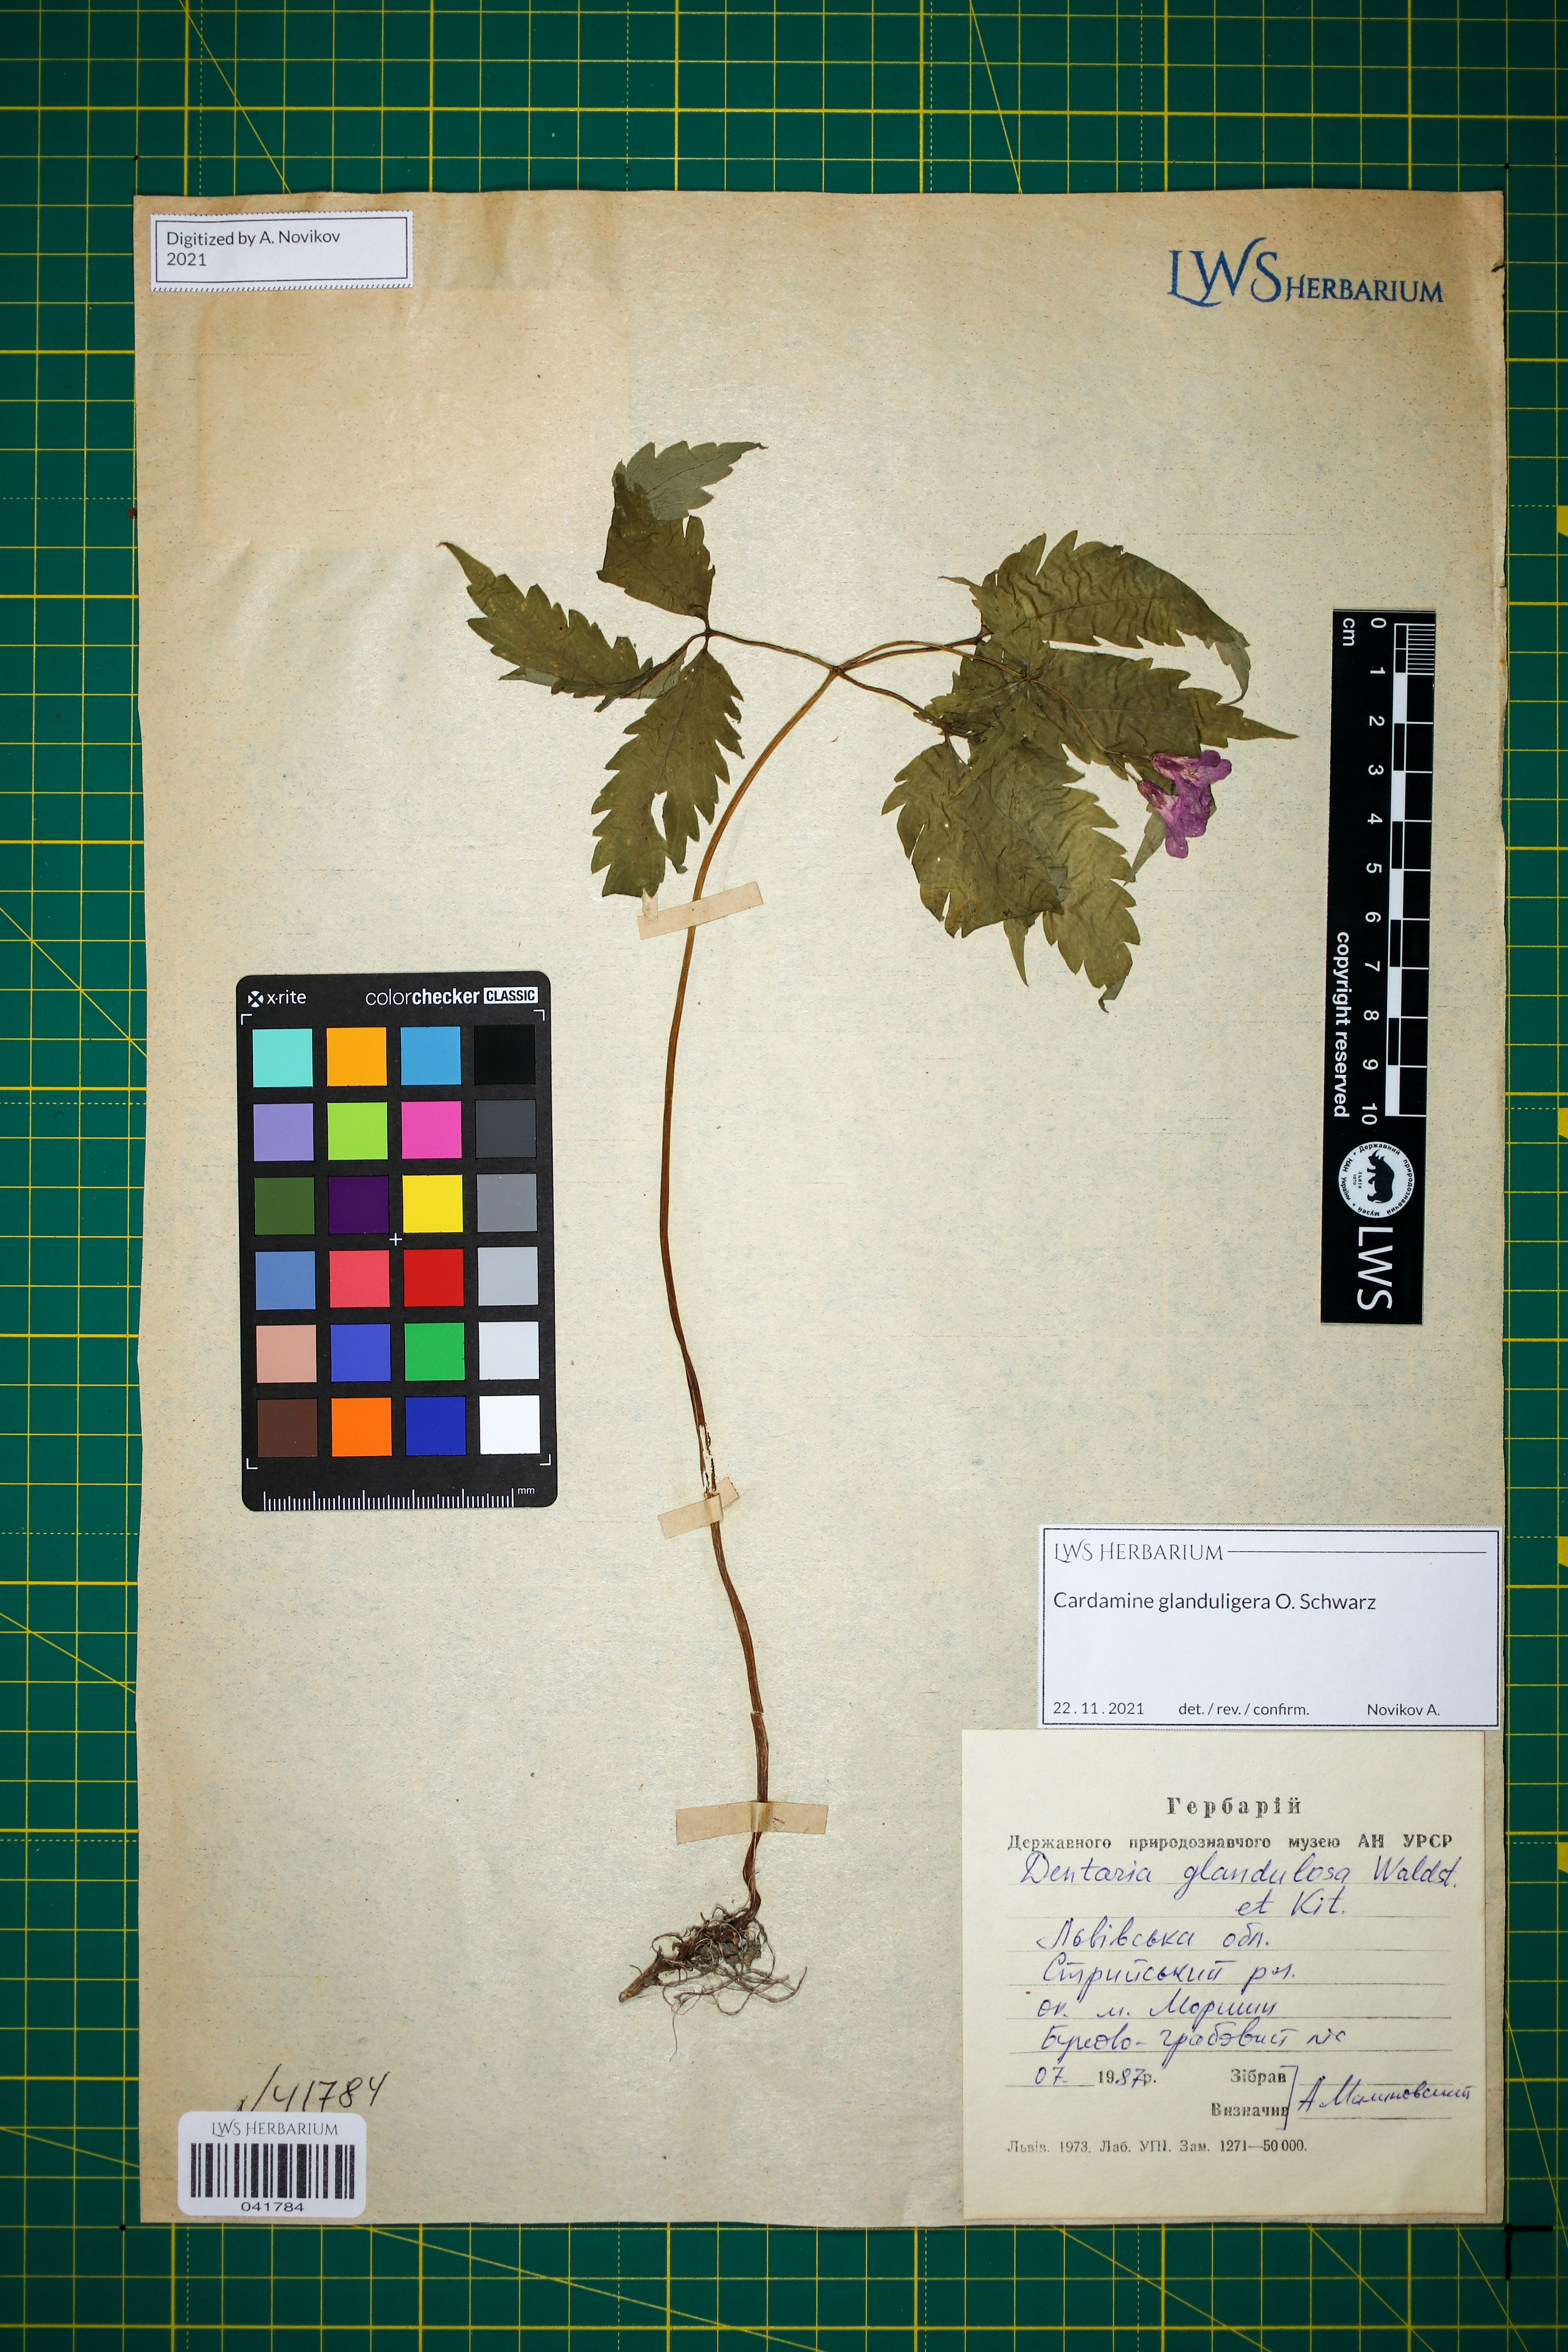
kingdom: Plantae
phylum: Tracheophyta
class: Magnoliopsida
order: Brassicales
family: Brassicaceae
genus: Cardamine
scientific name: Cardamine glanduligera
